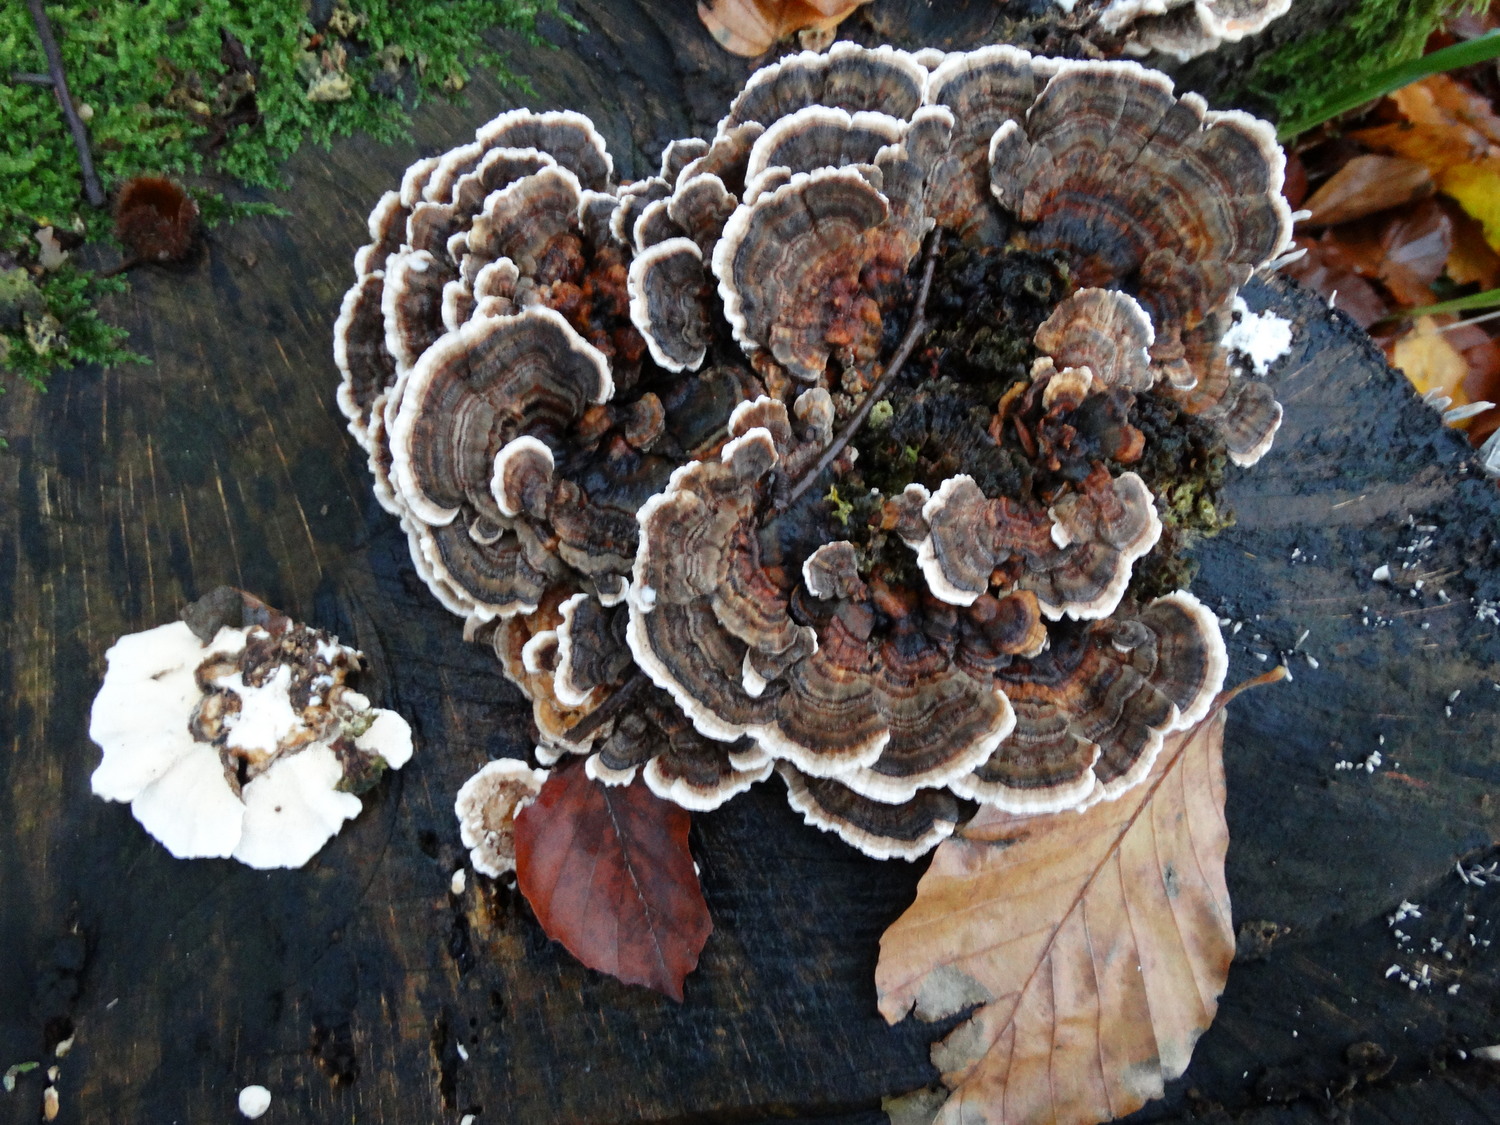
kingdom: Fungi
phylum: Basidiomycota
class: Agaricomycetes
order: Polyporales
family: Polyporaceae
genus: Trametes
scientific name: Trametes versicolor
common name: broget læderporesvamp
